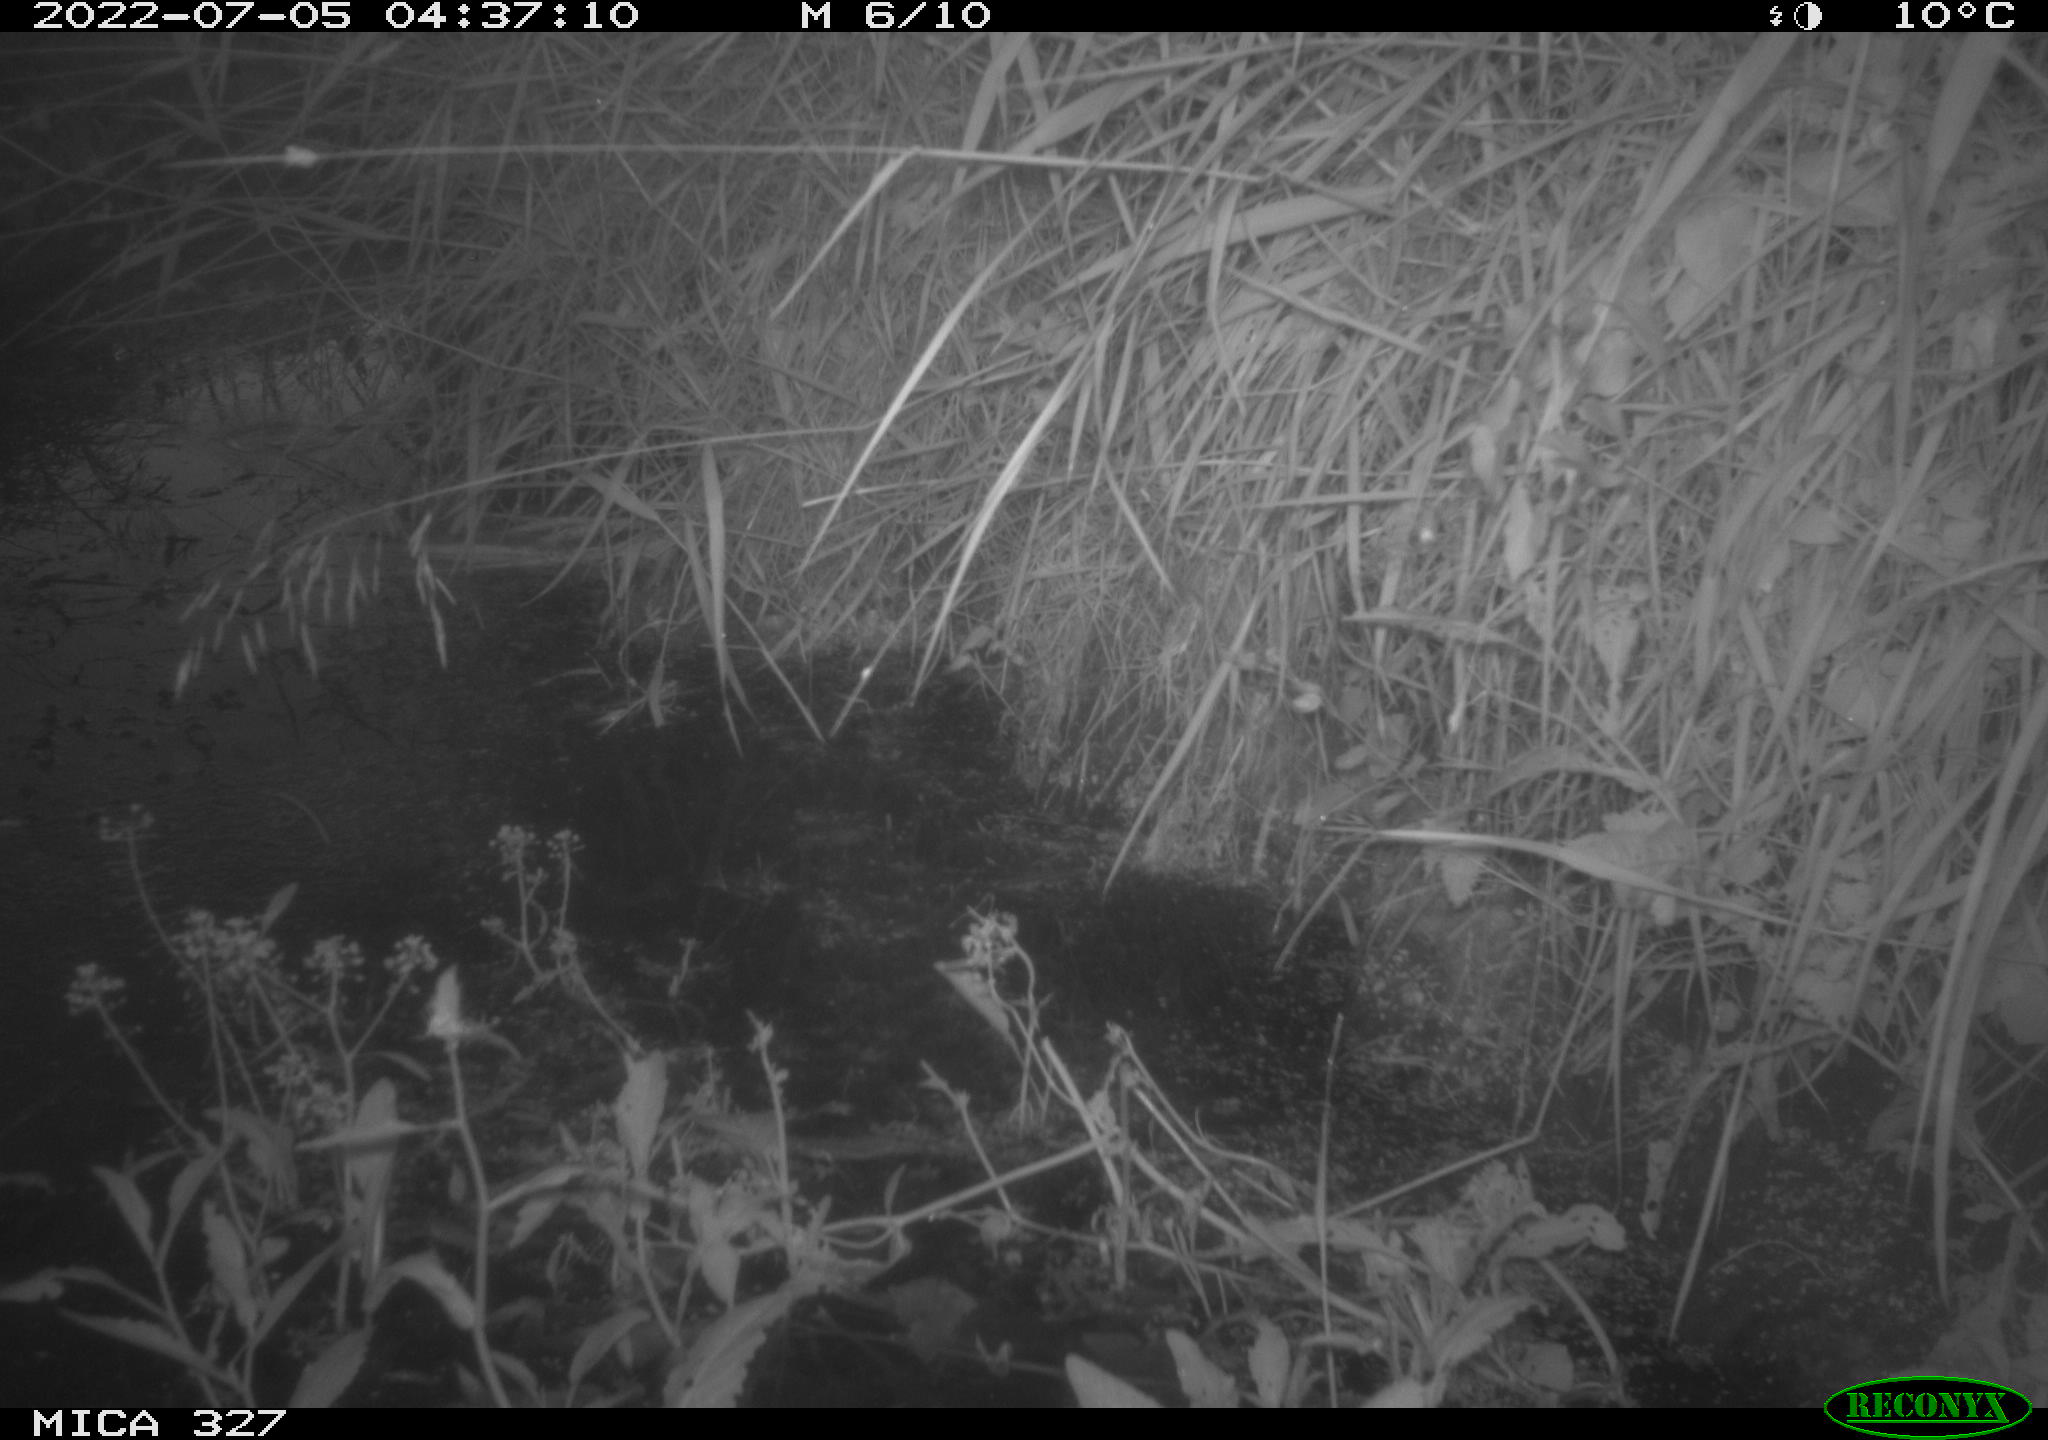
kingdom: Animalia
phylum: Chordata
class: Mammalia
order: Rodentia
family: Muridae
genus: Rattus
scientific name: Rattus norvegicus
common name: Brown rat
